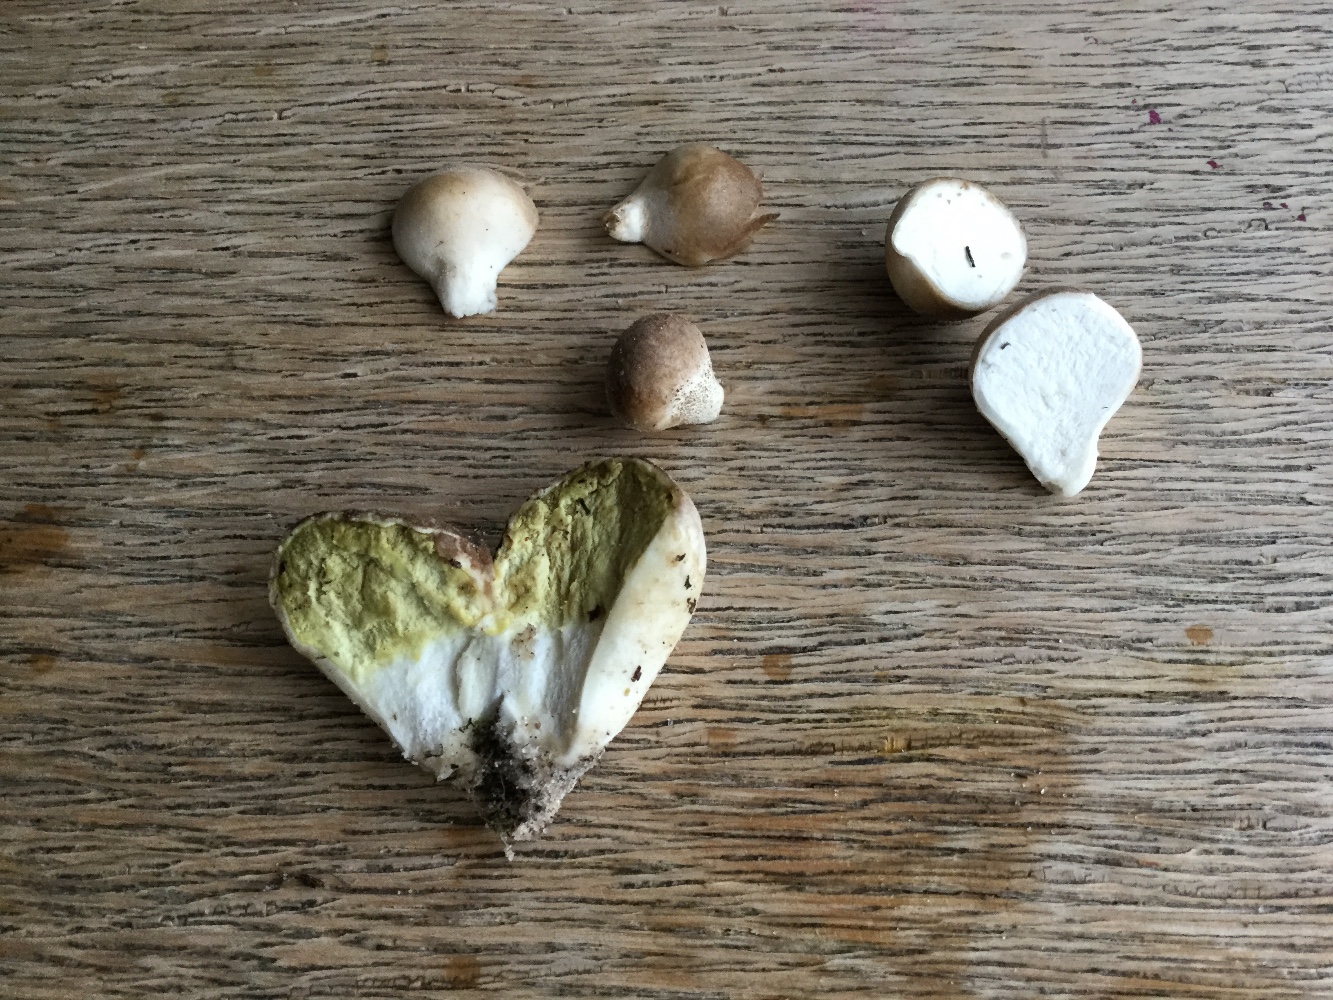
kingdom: Fungi
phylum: Basidiomycota
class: Agaricomycetes
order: Agaricales
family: Lycoperdaceae
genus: Lycoperdon
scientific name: Lycoperdon lividum
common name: mark-støvbold
